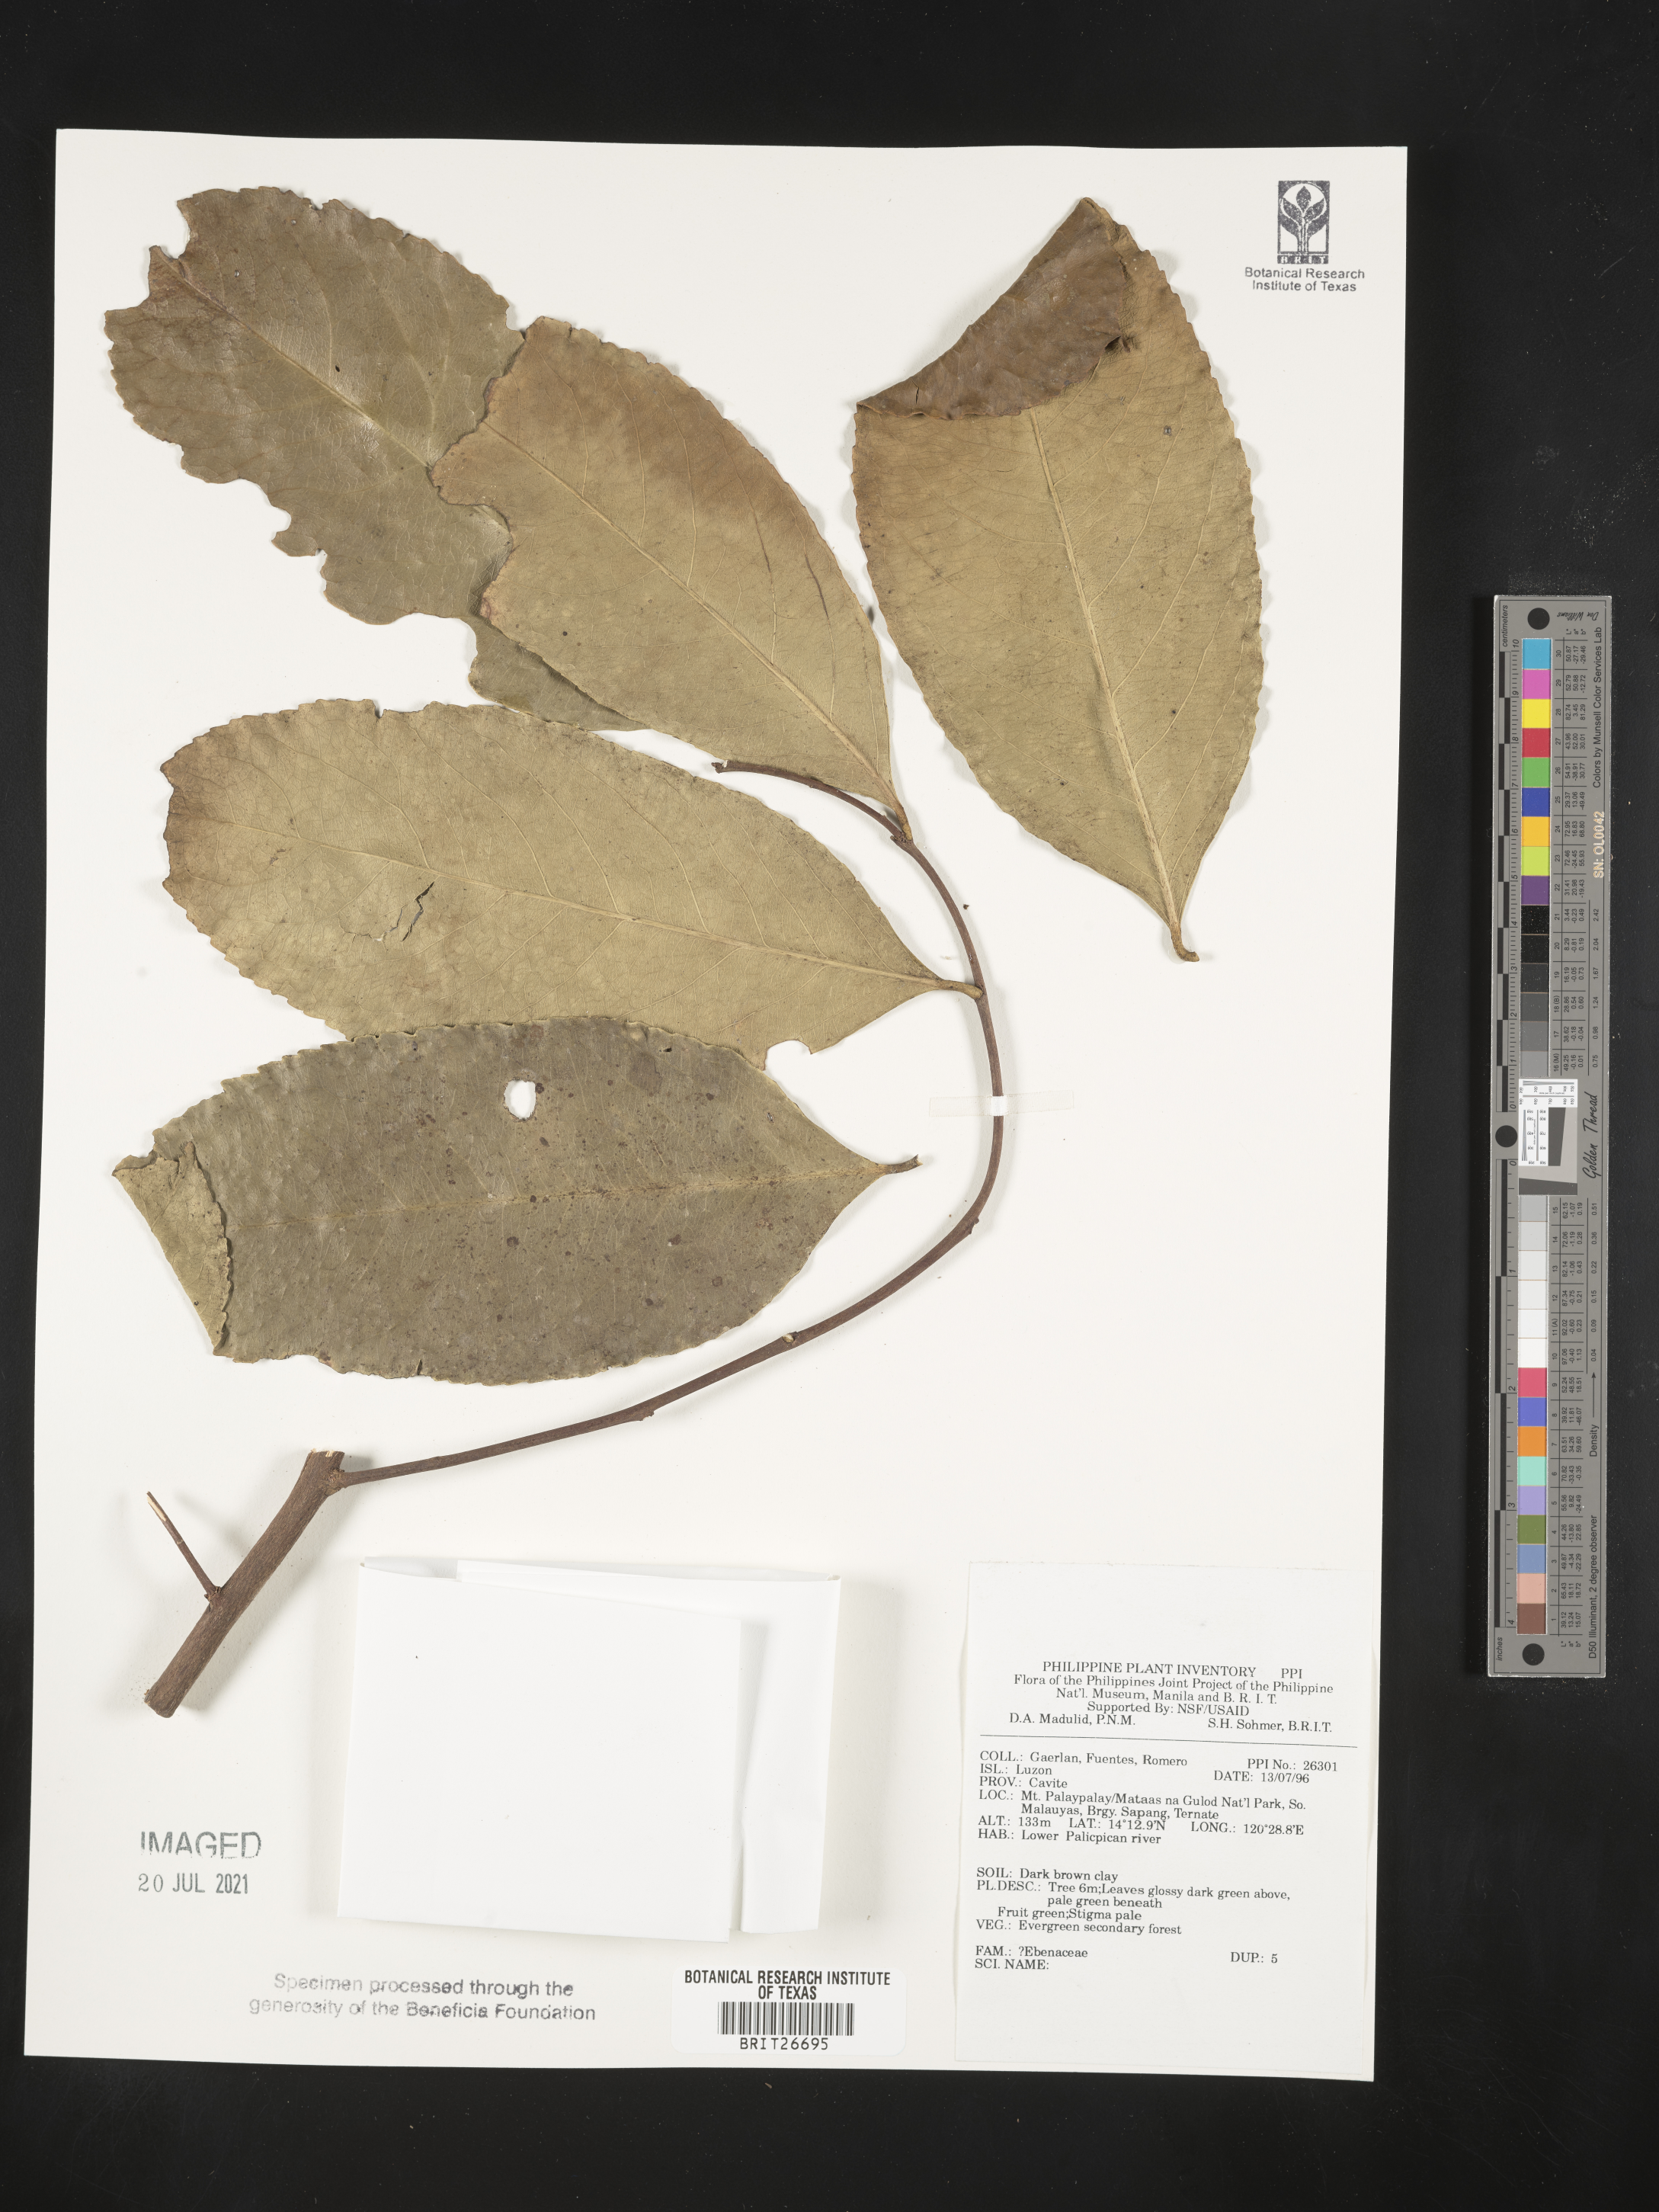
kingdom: Plantae
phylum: Tracheophyta
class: Magnoliopsida
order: Ericales
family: Ebenaceae
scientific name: Ebenaceae
